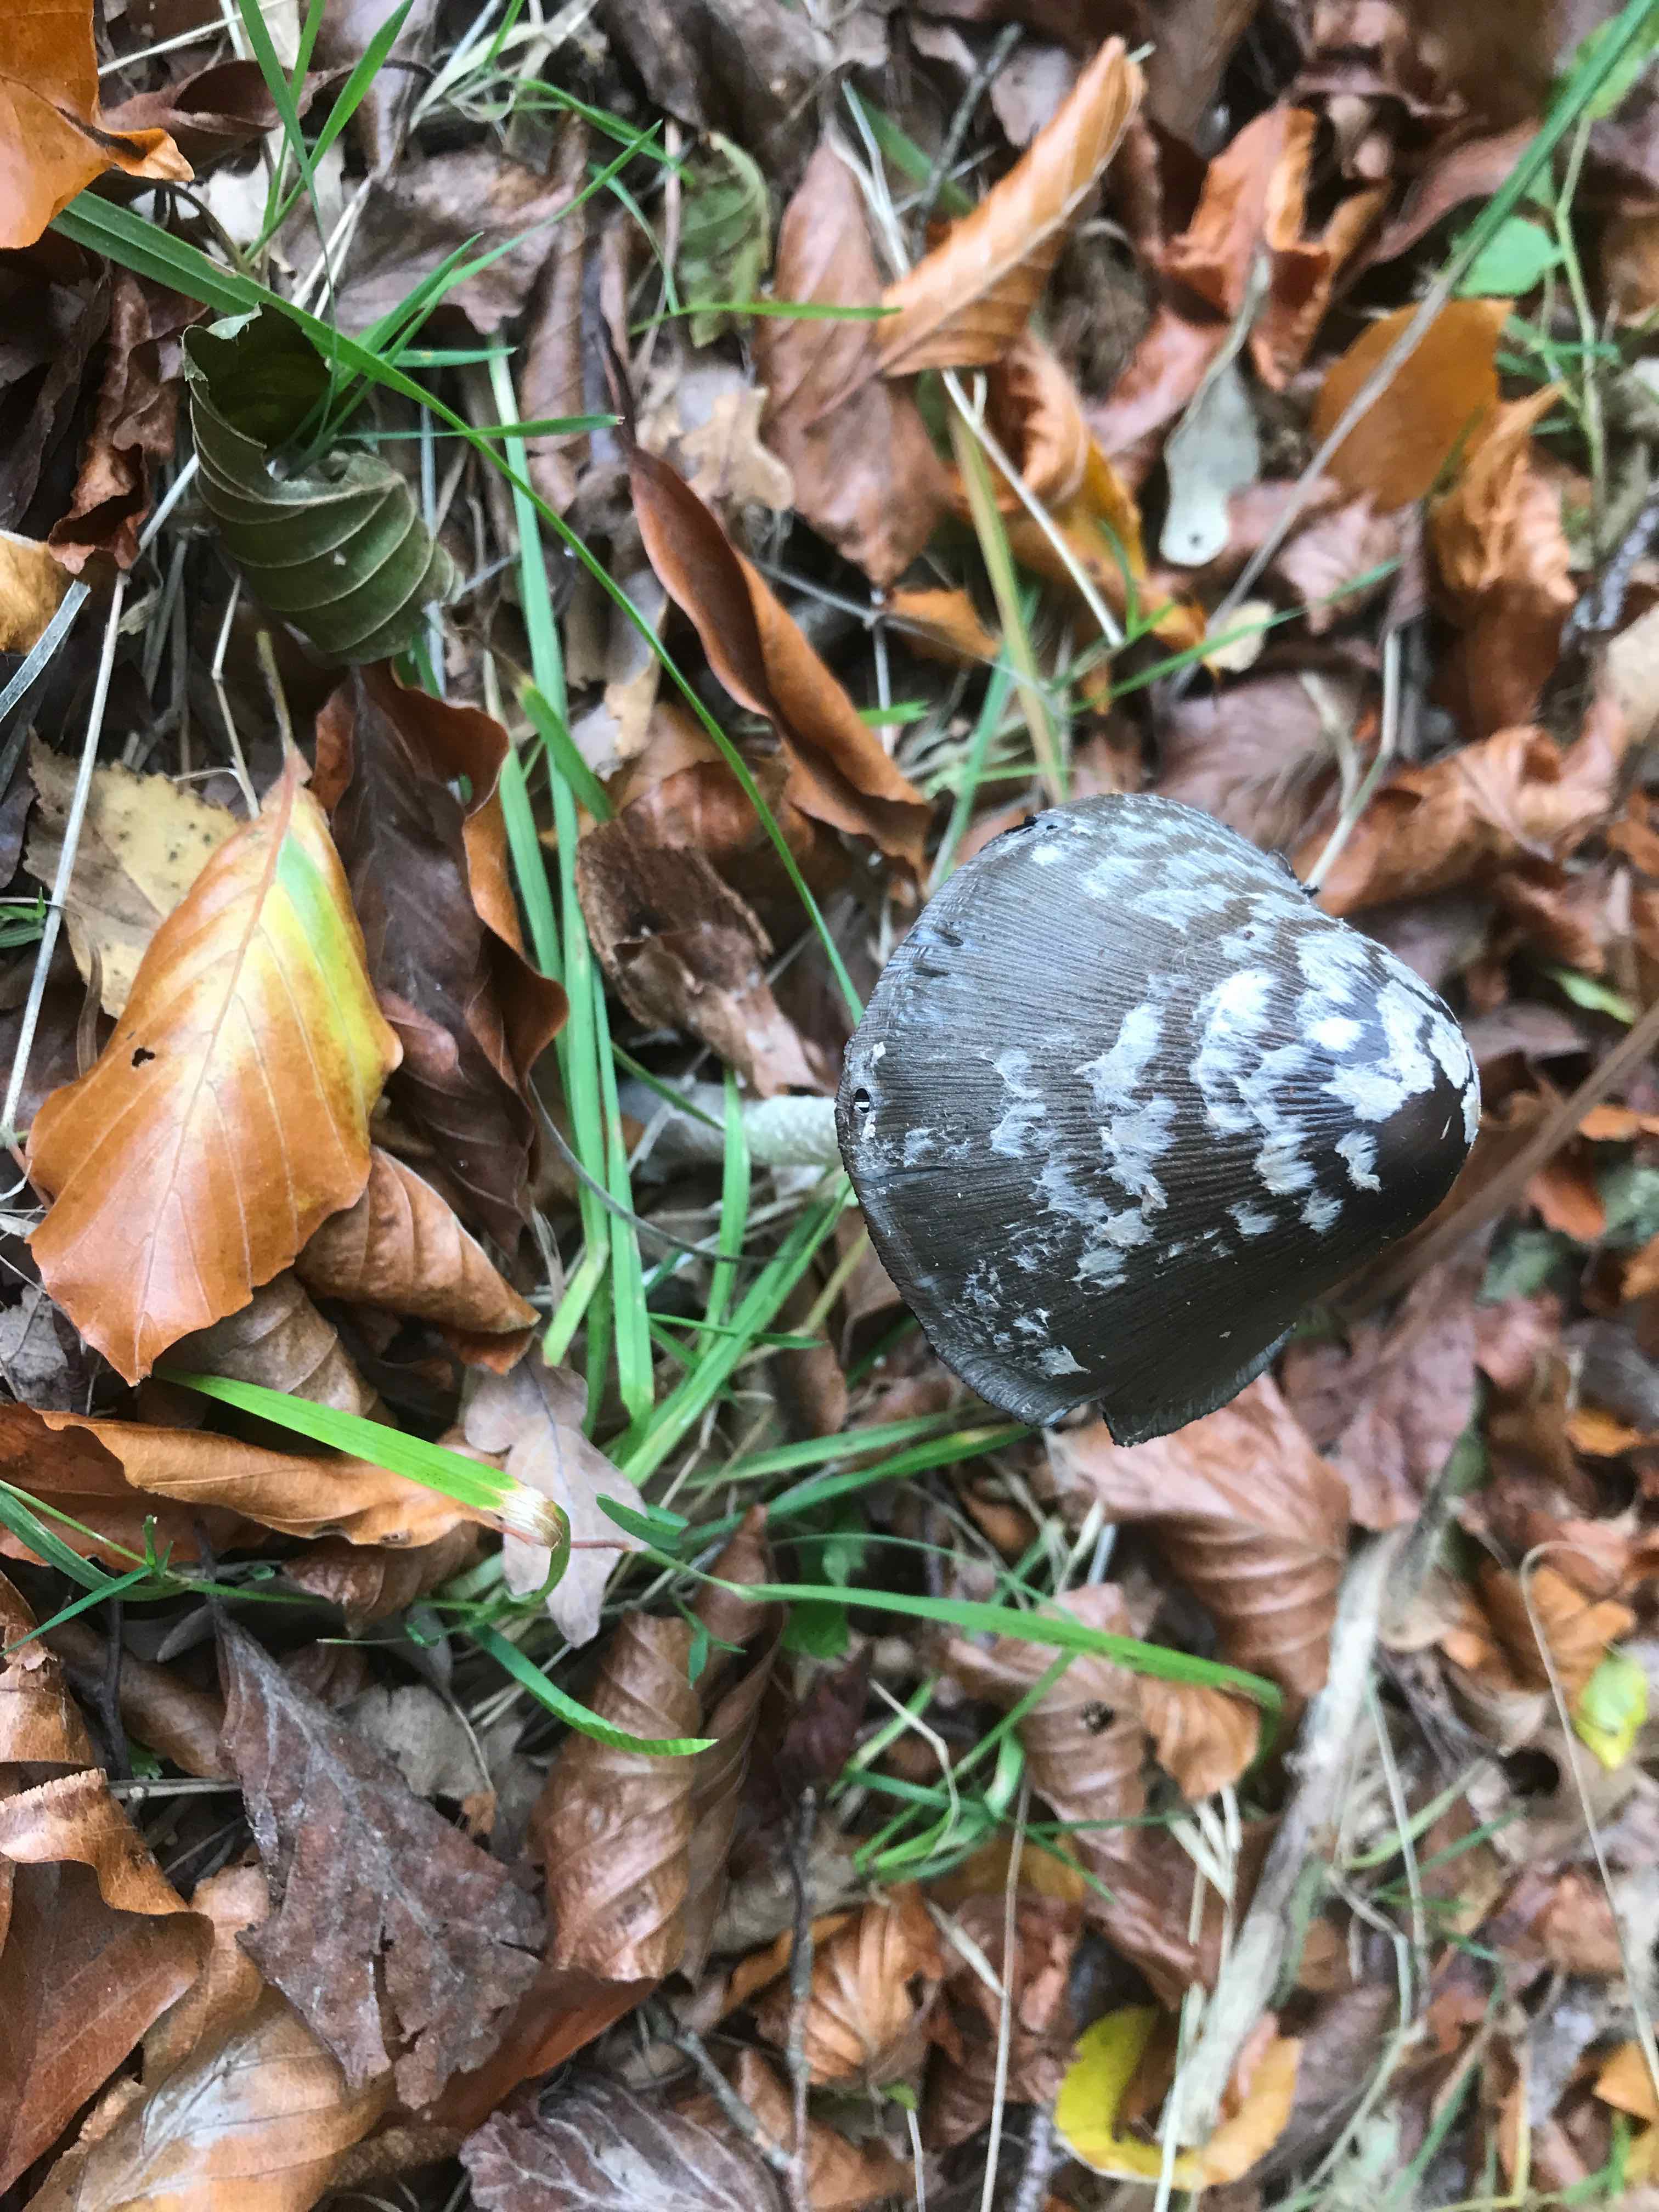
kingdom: Fungi
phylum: Basidiomycota
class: Agaricomycetes
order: Agaricales
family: Psathyrellaceae
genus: Coprinopsis
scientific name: Coprinopsis picacea
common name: skade-blækhat
